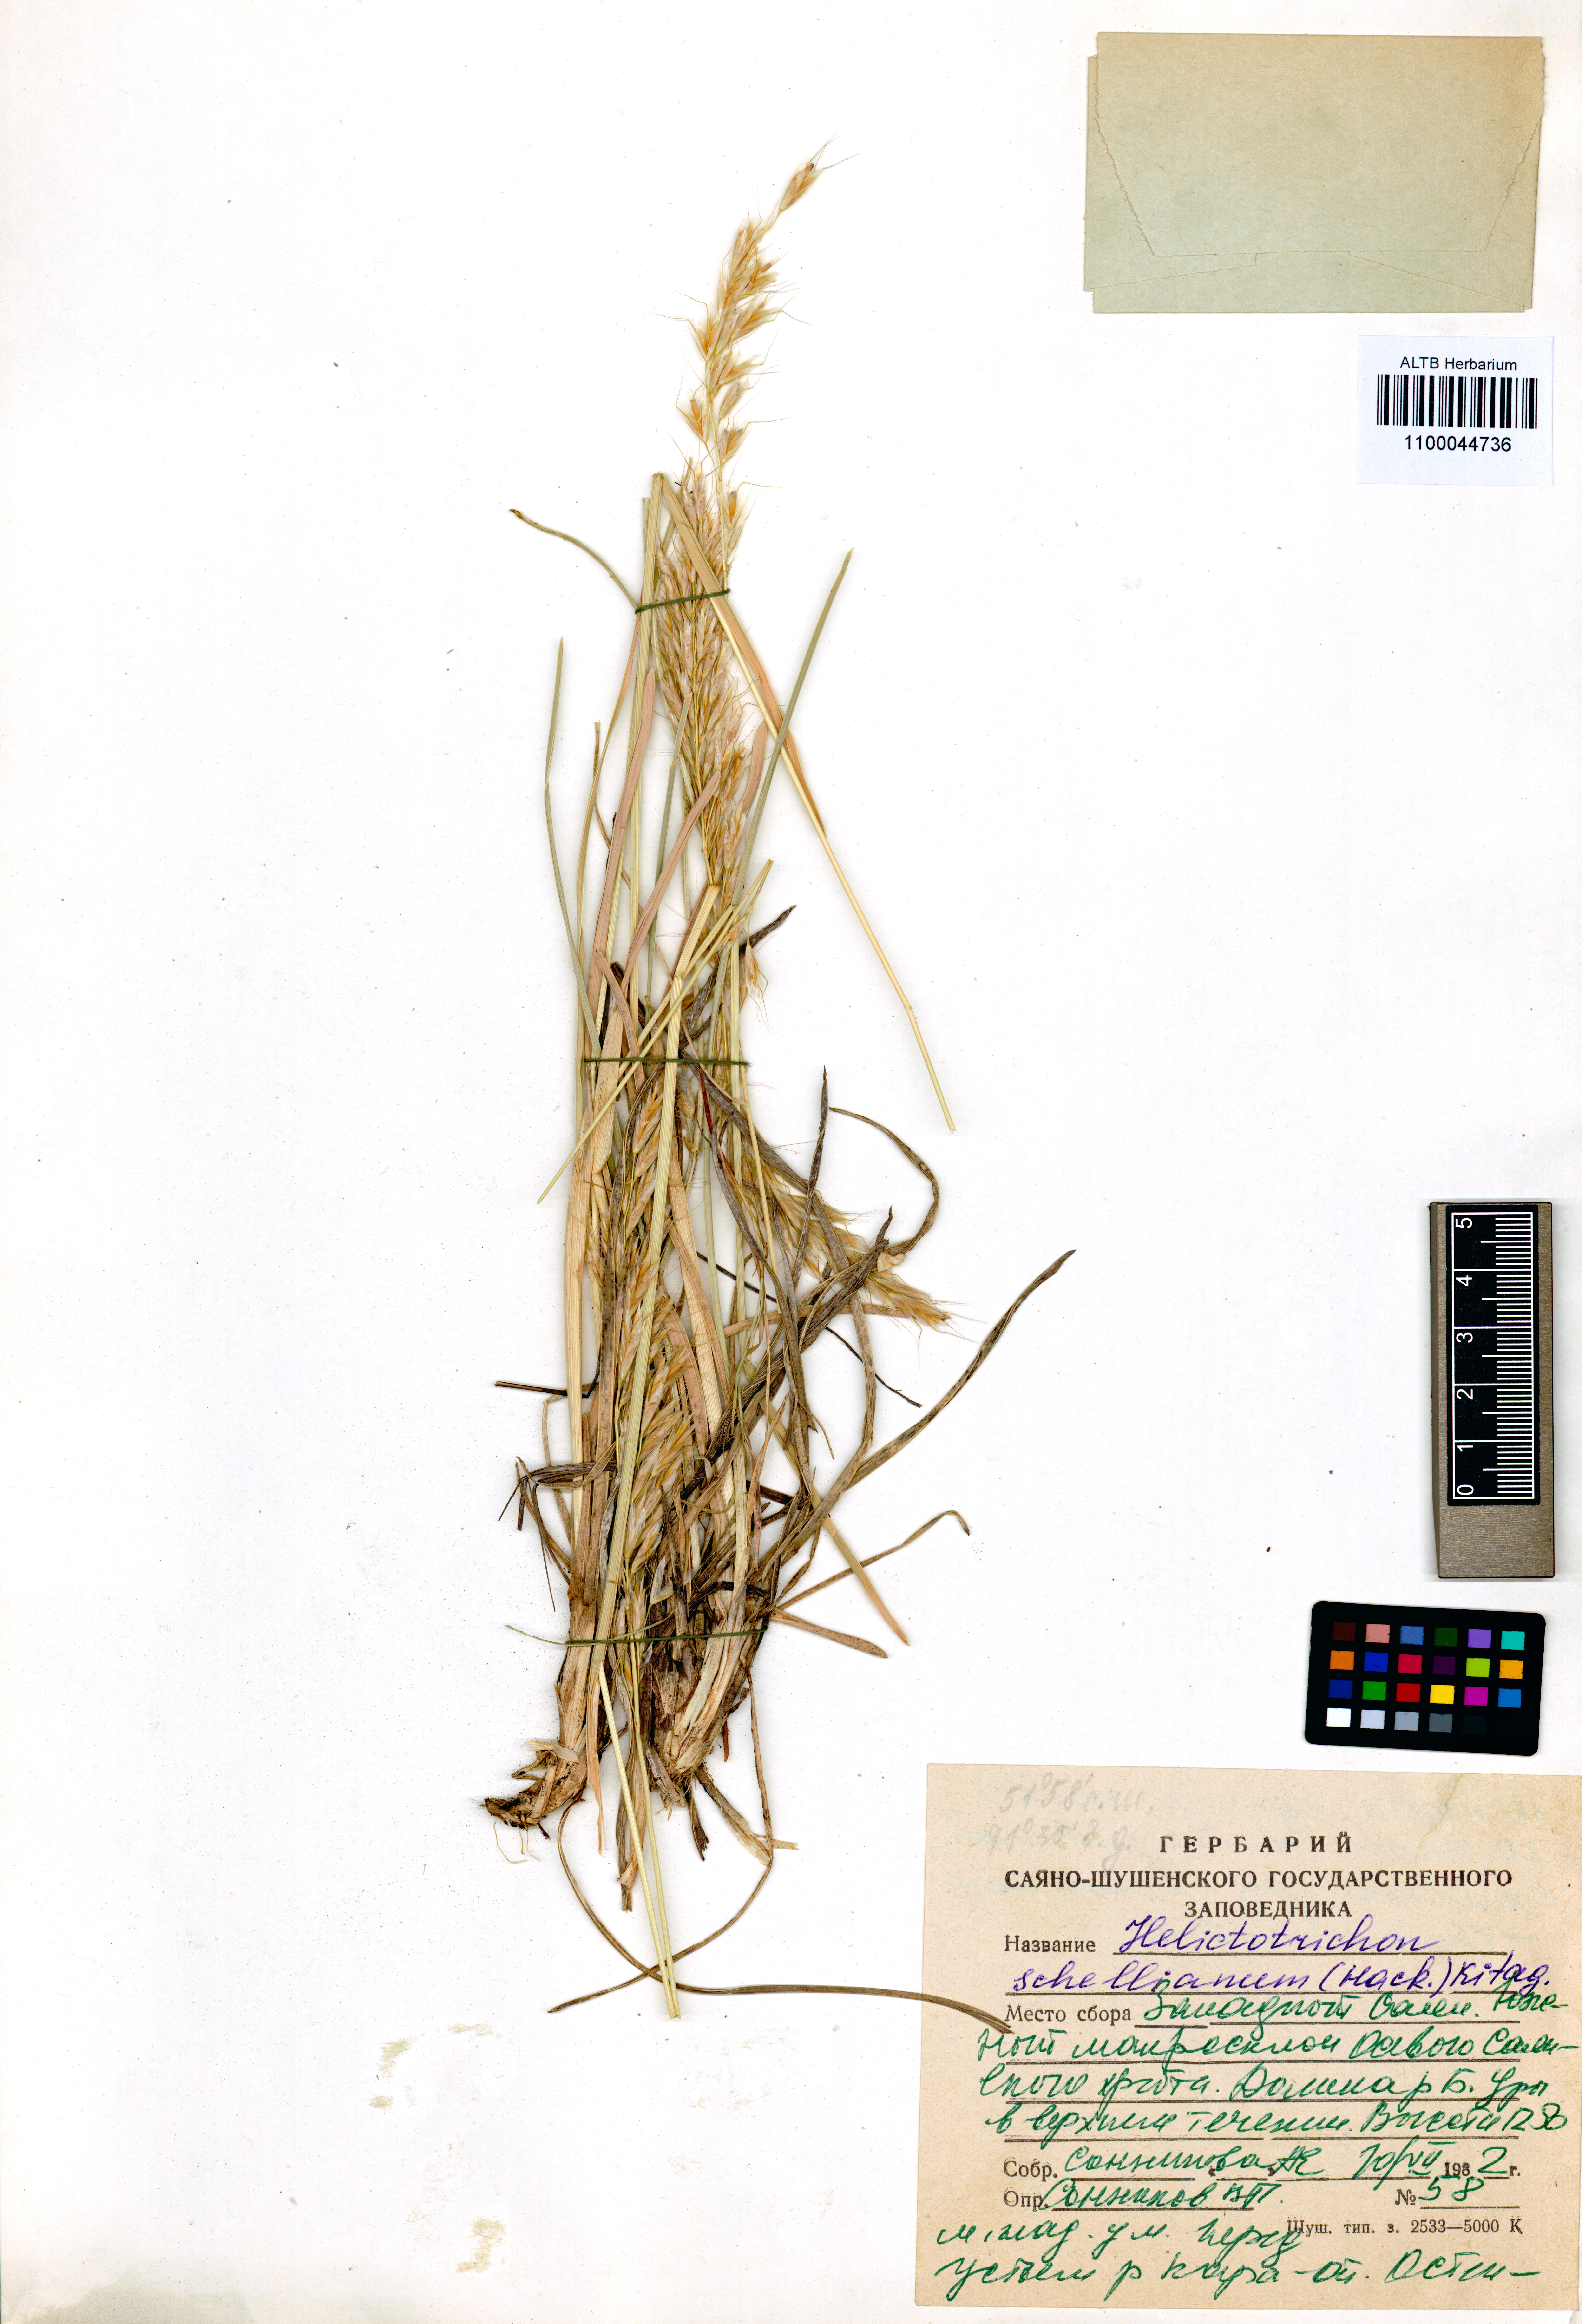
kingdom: Plantae
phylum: Tracheophyta
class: Liliopsida
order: Poales
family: Poaceae
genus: Helictochloa
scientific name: Helictochloa hookeri
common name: Hooker's alpine oatgrass
